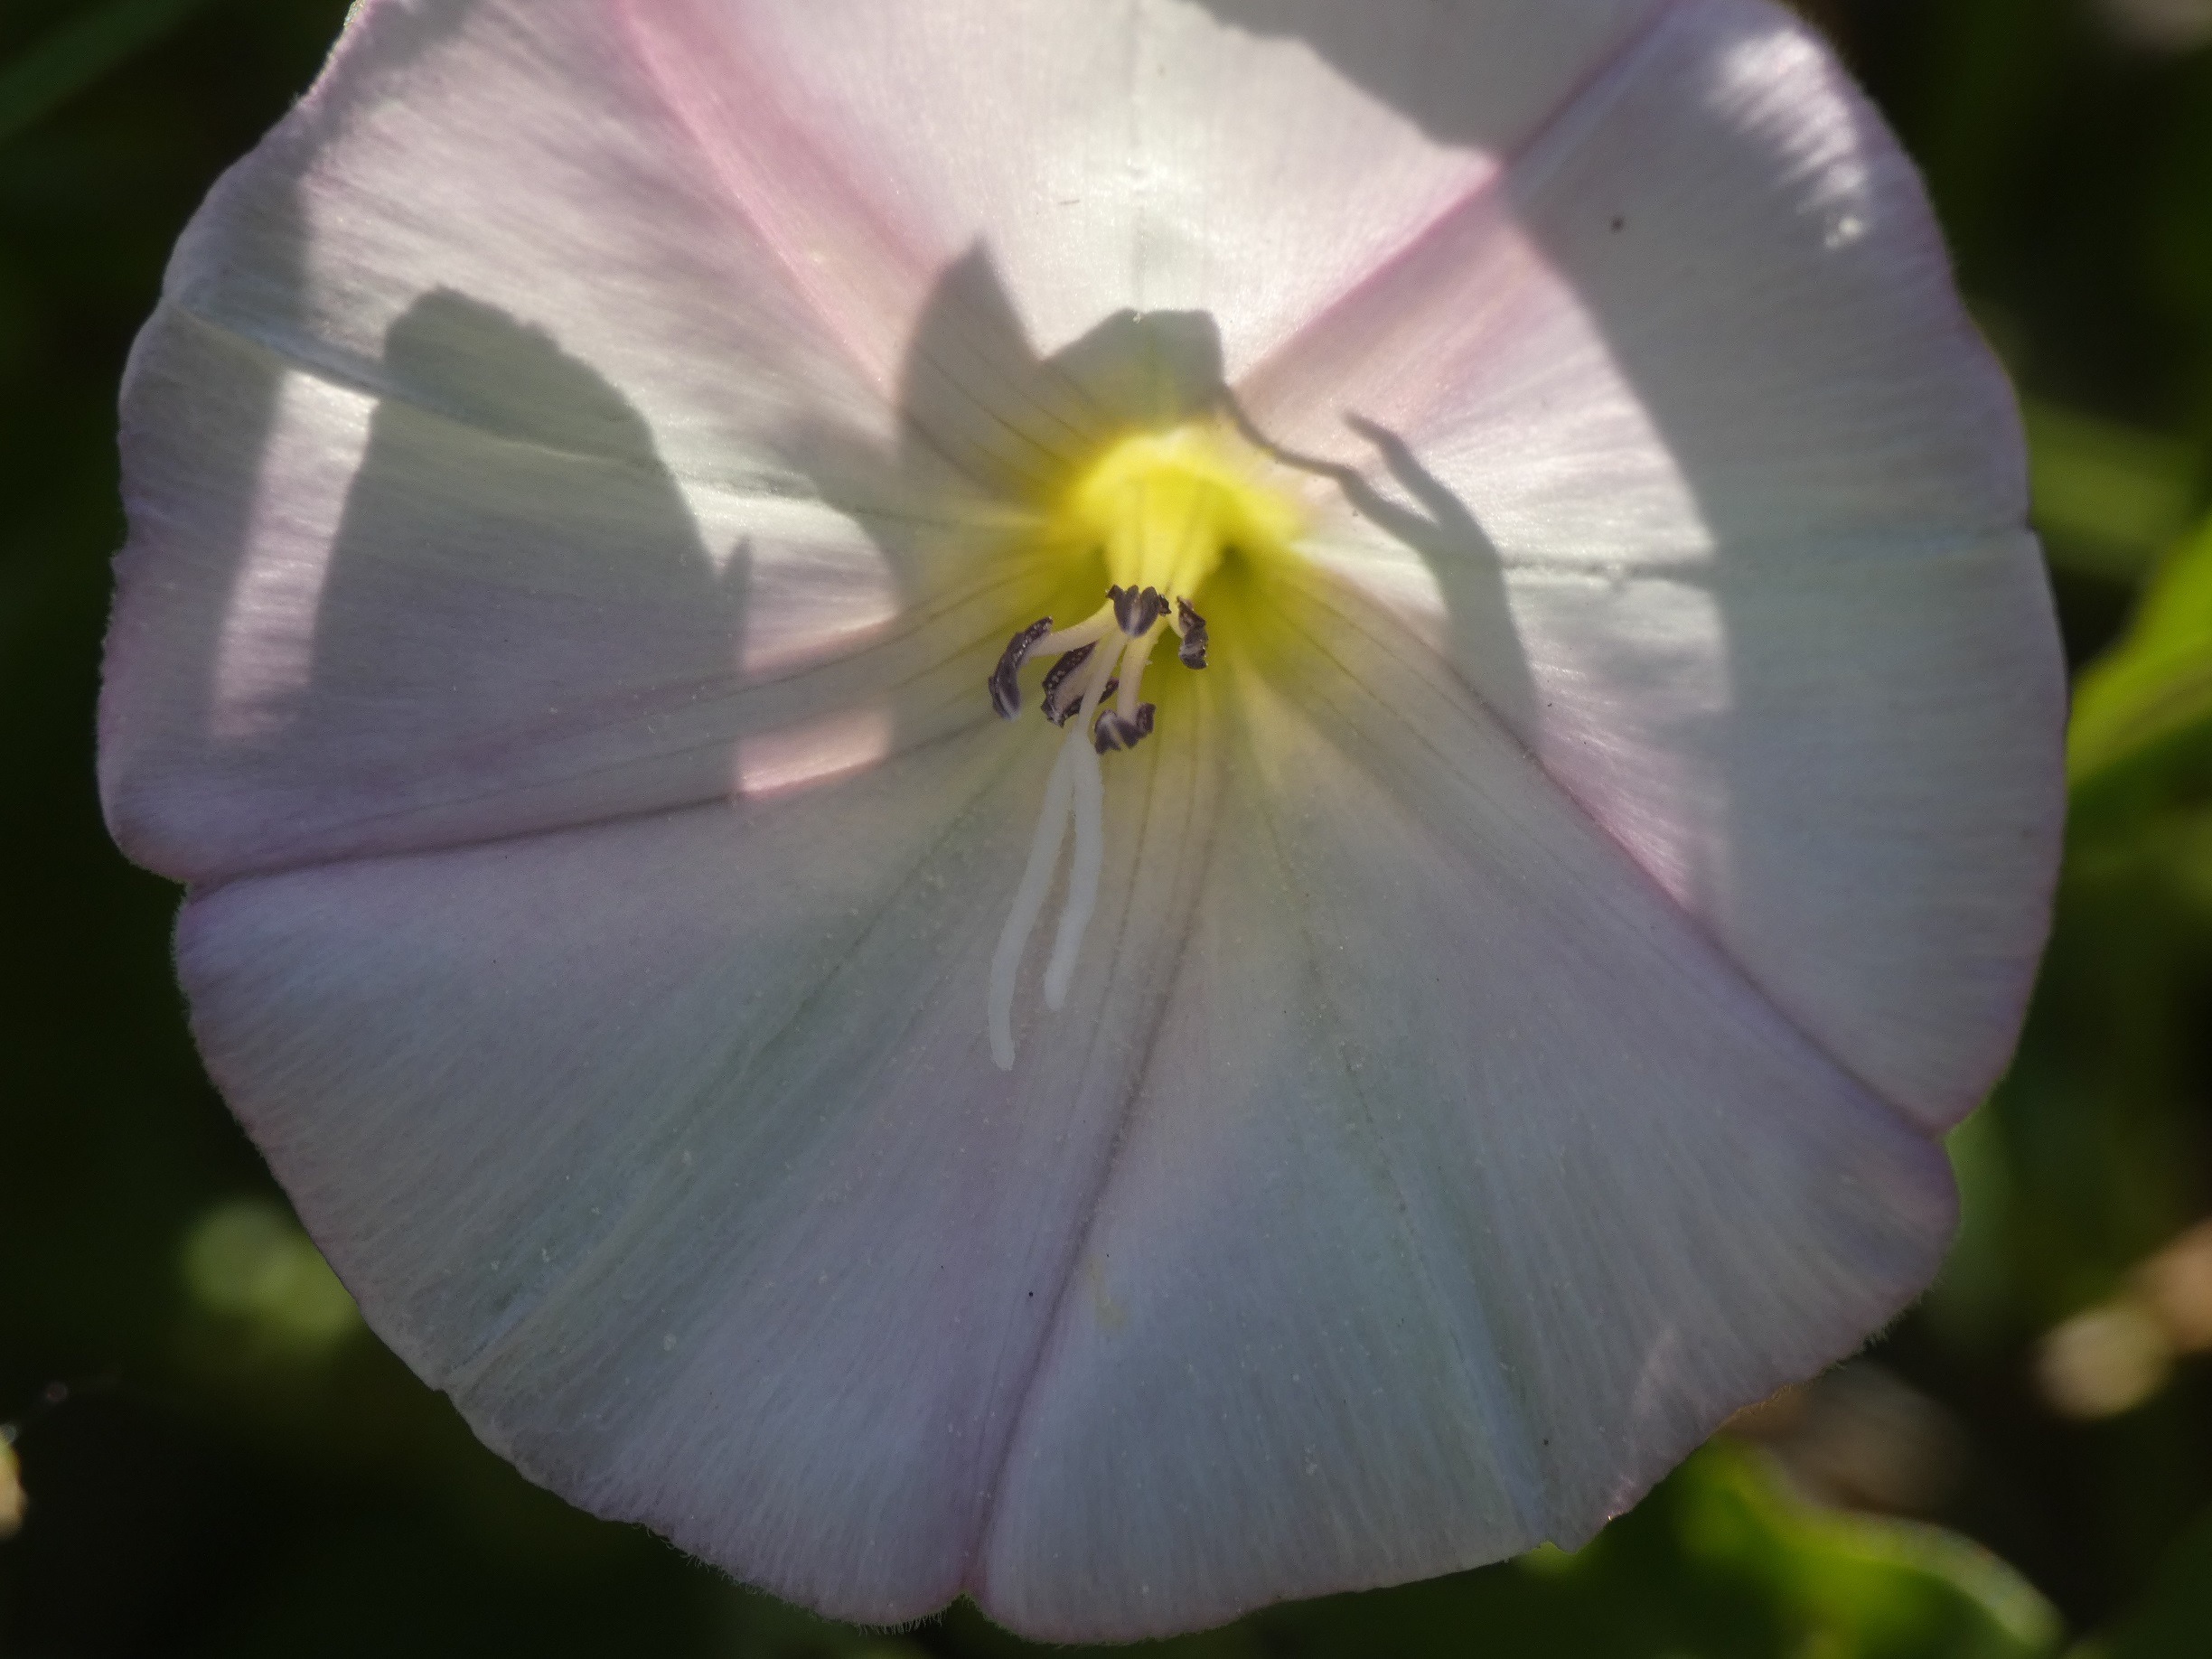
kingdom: Plantae
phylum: Tracheophyta
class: Magnoliopsida
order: Solanales
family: Convolvulaceae
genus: Convolvulus
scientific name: Convolvulus arvensis
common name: Ager-snerle
